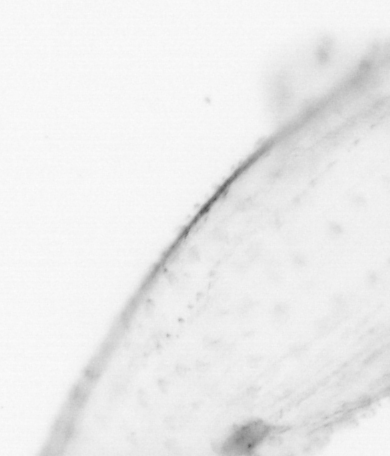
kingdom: Animalia
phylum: Chaetognatha
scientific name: Chaetognatha
